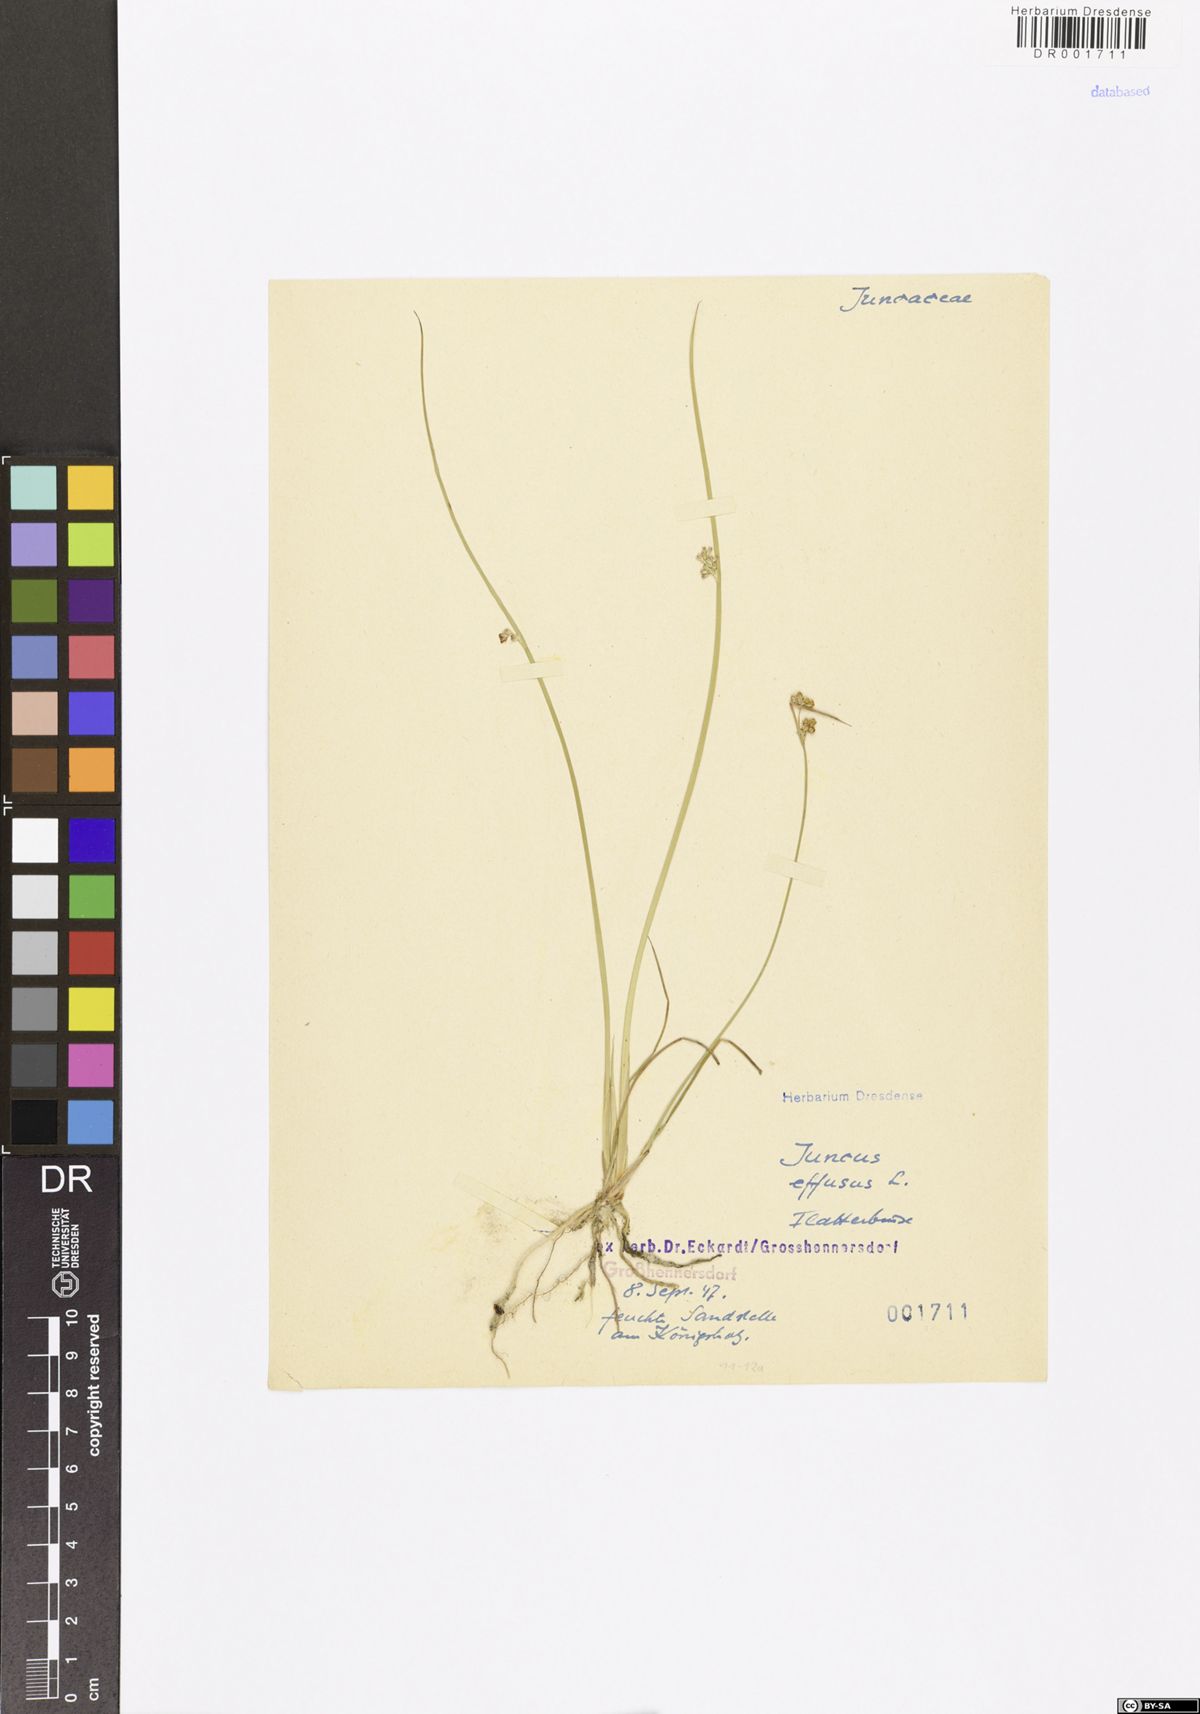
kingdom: Plantae
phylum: Tracheophyta
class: Liliopsida
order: Poales
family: Juncaceae
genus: Juncus
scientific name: Juncus effusus
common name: Soft rush
